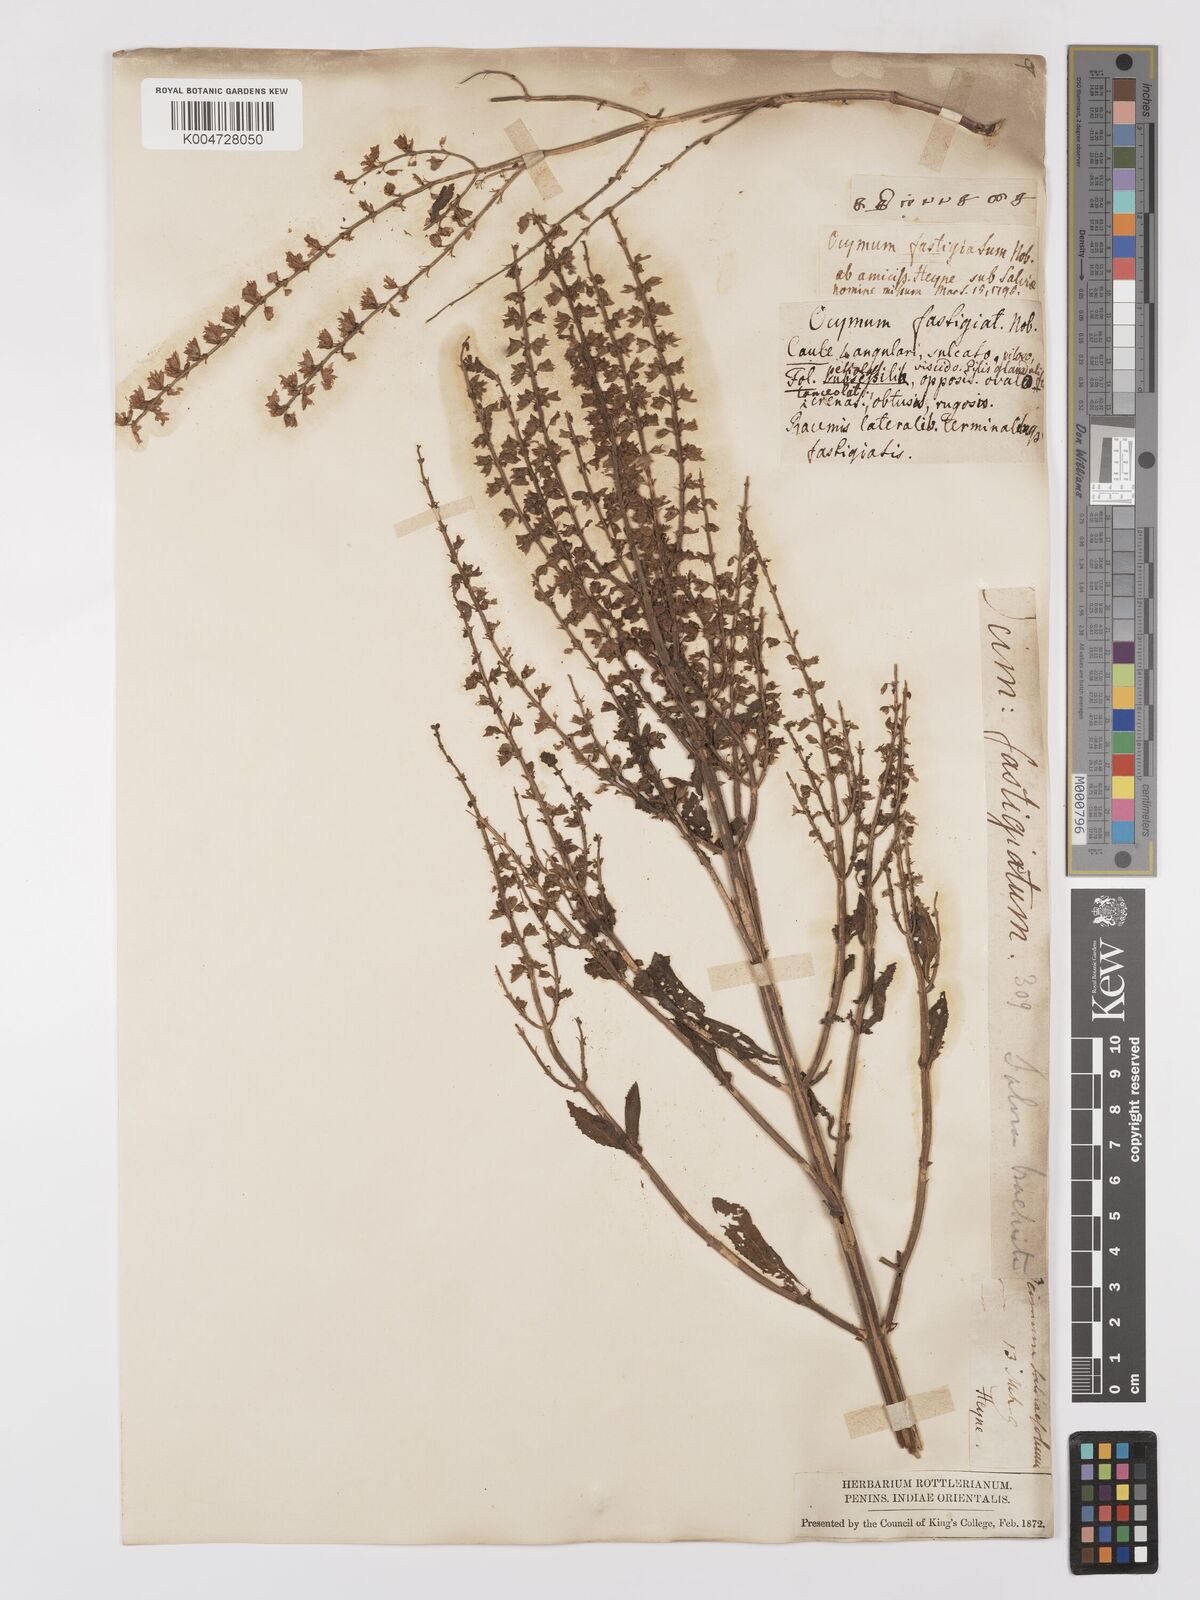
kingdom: Plantae
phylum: Tracheophyta
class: Magnoliopsida
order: Lamiales
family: Lamiaceae
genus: Salvia
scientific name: Salvia plebeia
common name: Australian sage
